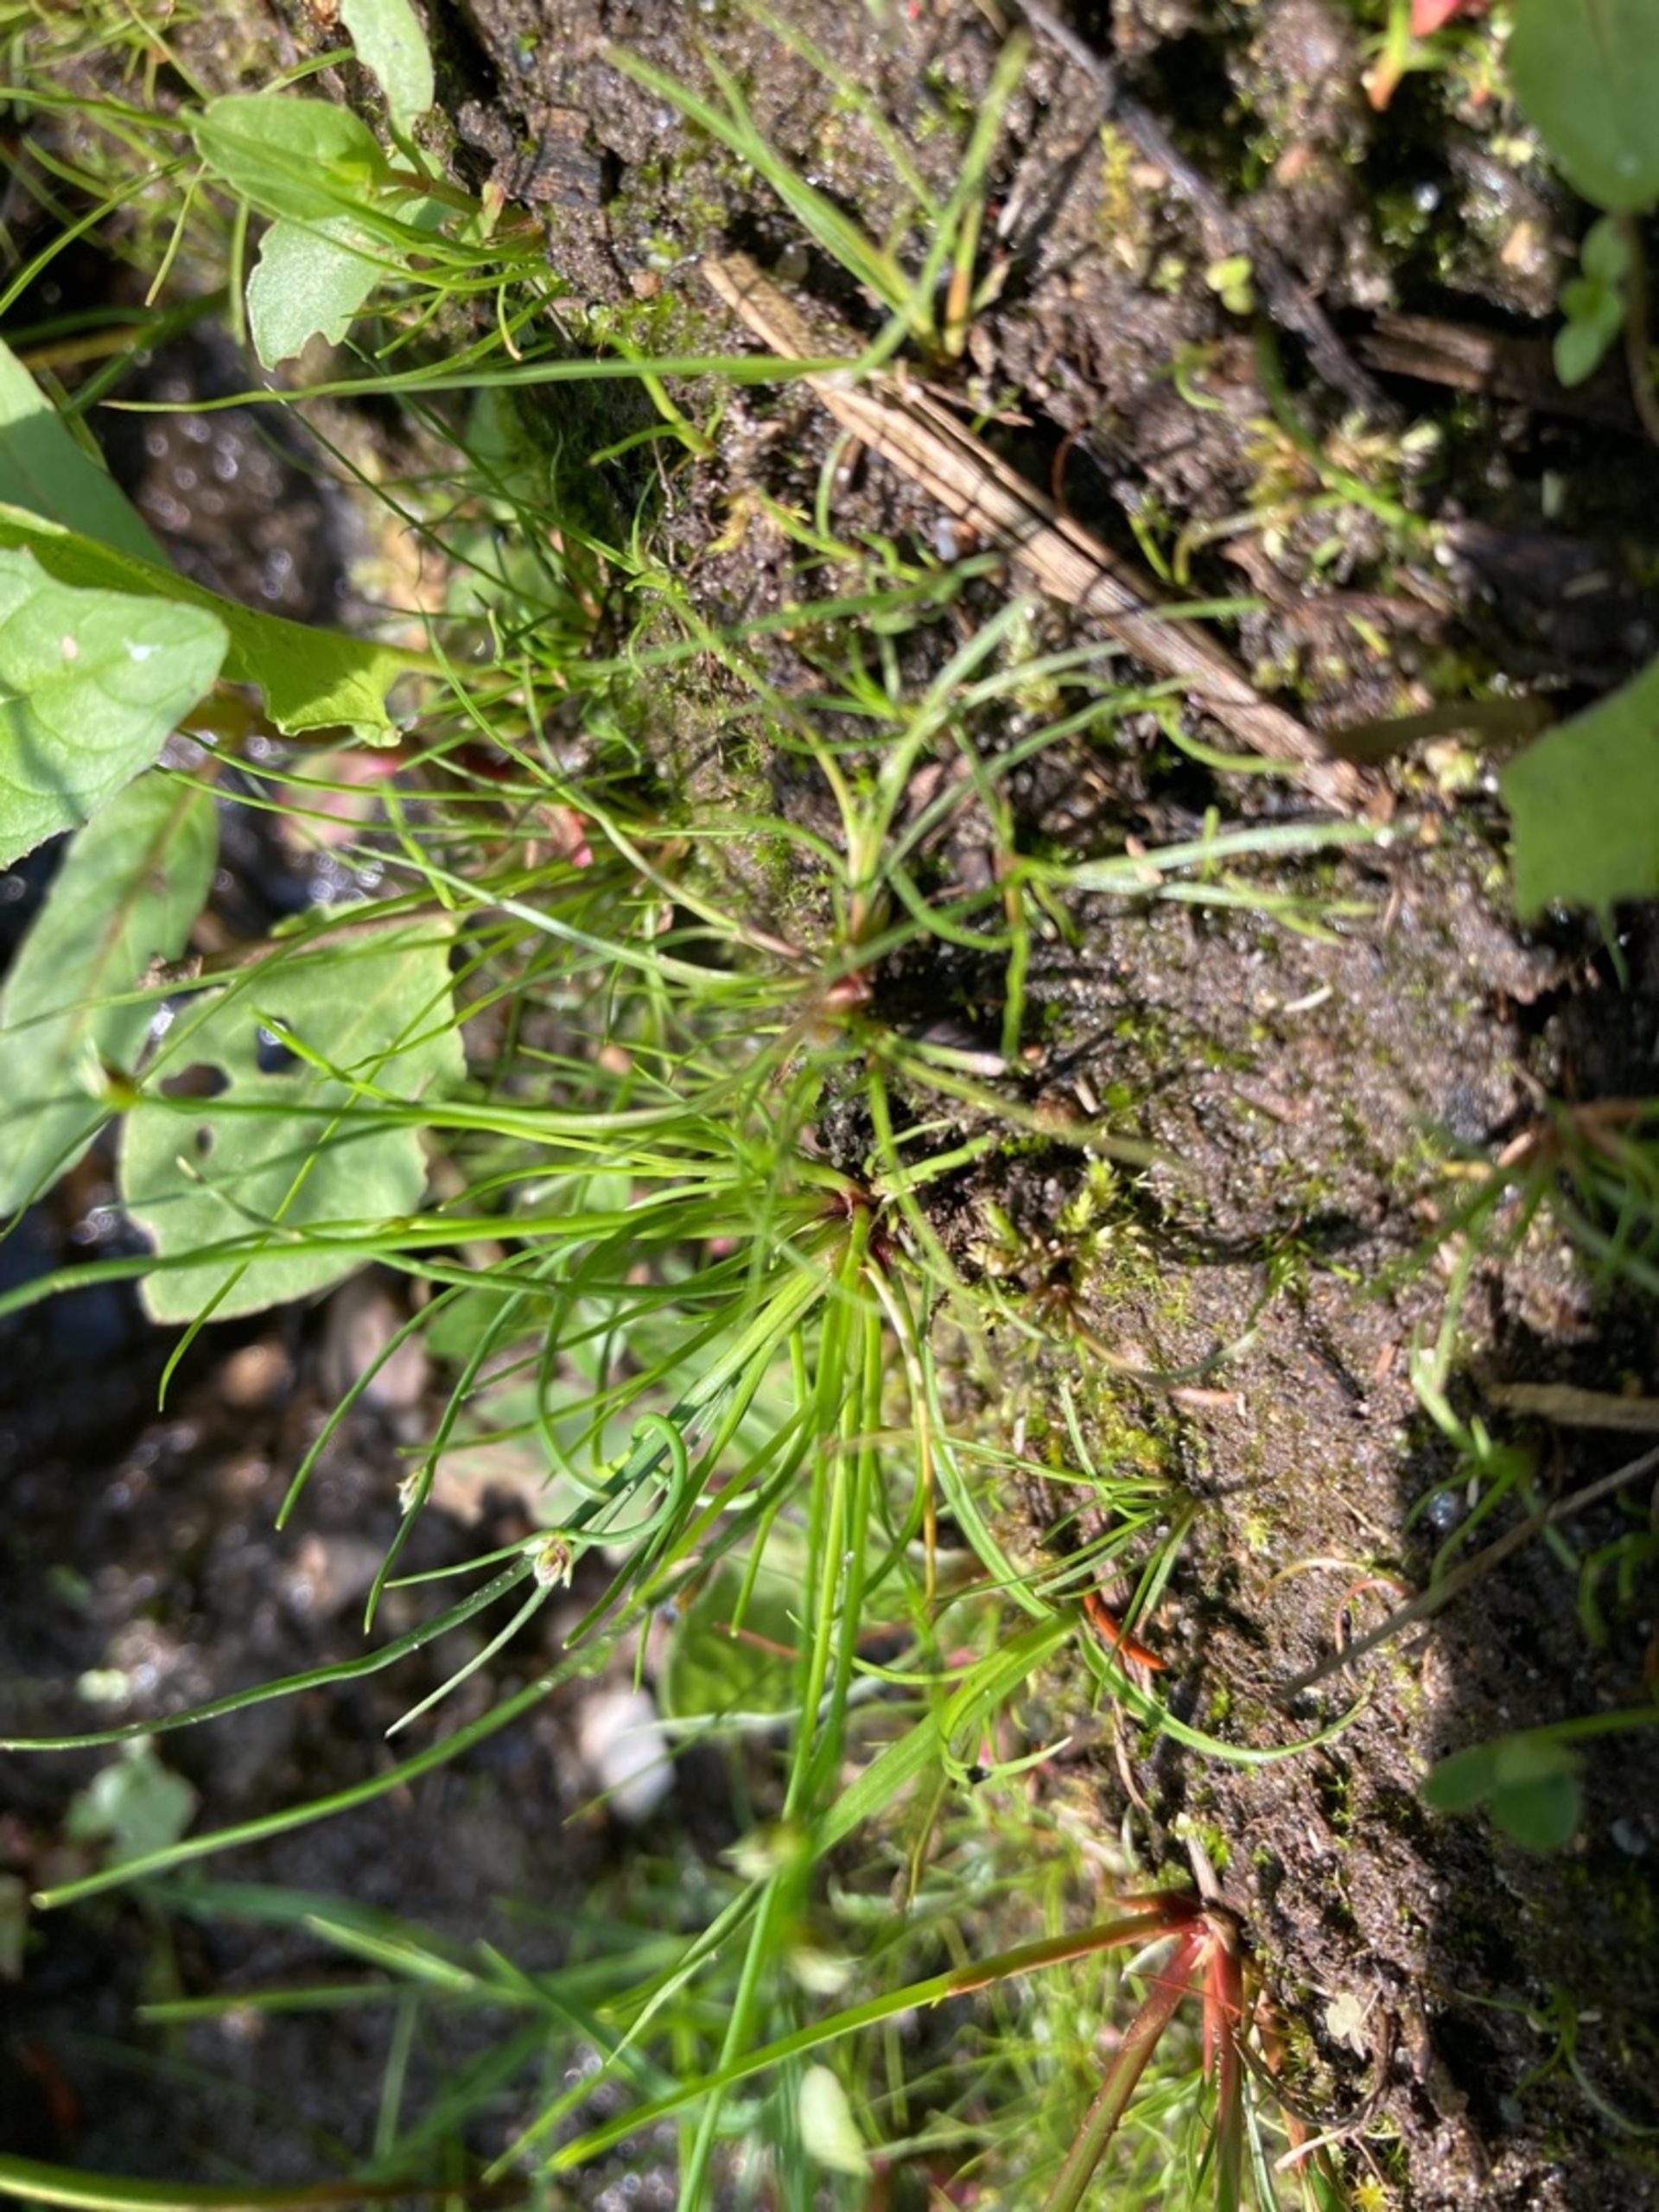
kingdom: Plantae
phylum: Tracheophyta
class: Liliopsida
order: Poales
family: Cyperaceae
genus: Isolepis
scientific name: Isolepis setacea
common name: Børste-kogleaks
